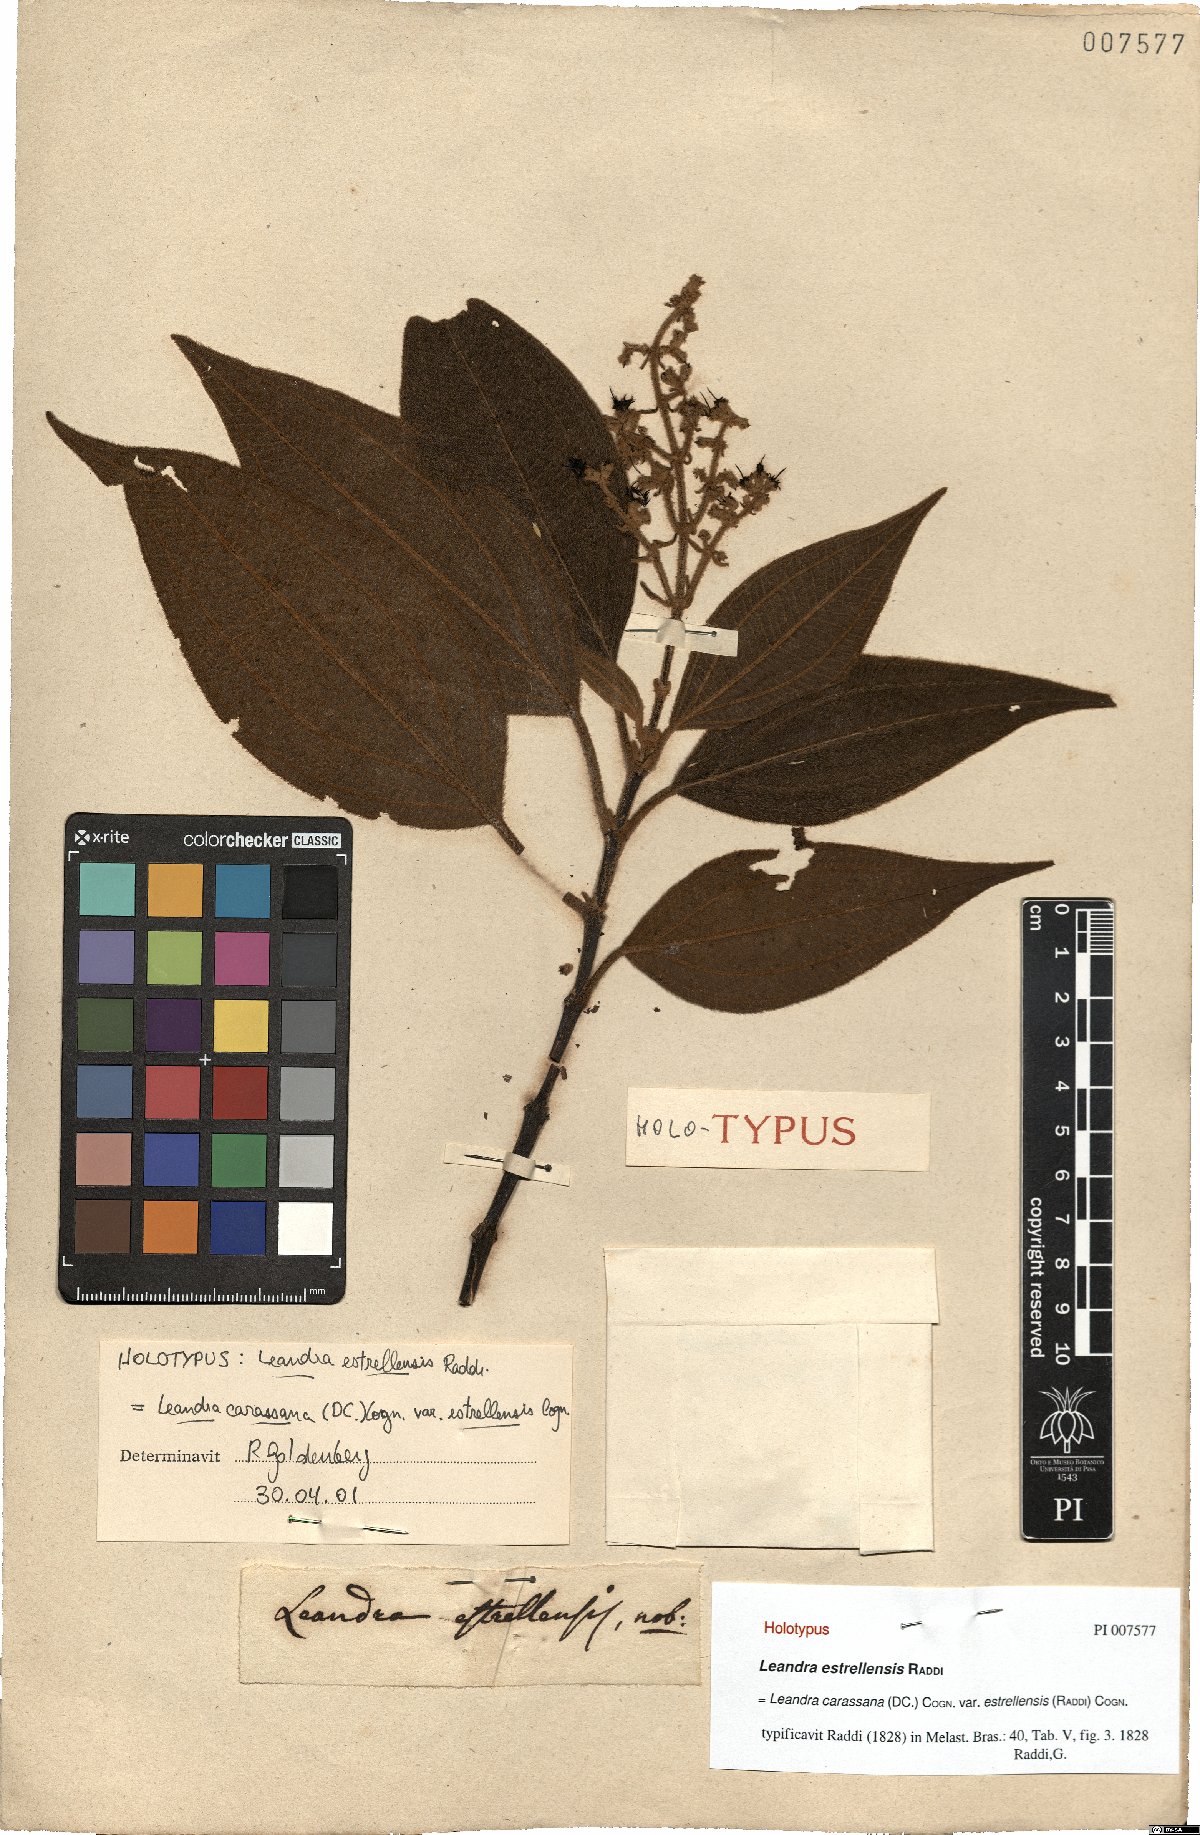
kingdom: Plantae
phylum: Tracheophyta
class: Magnoliopsida
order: Myrtales
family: Melastomataceae
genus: Miconia
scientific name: Miconia sublanata
